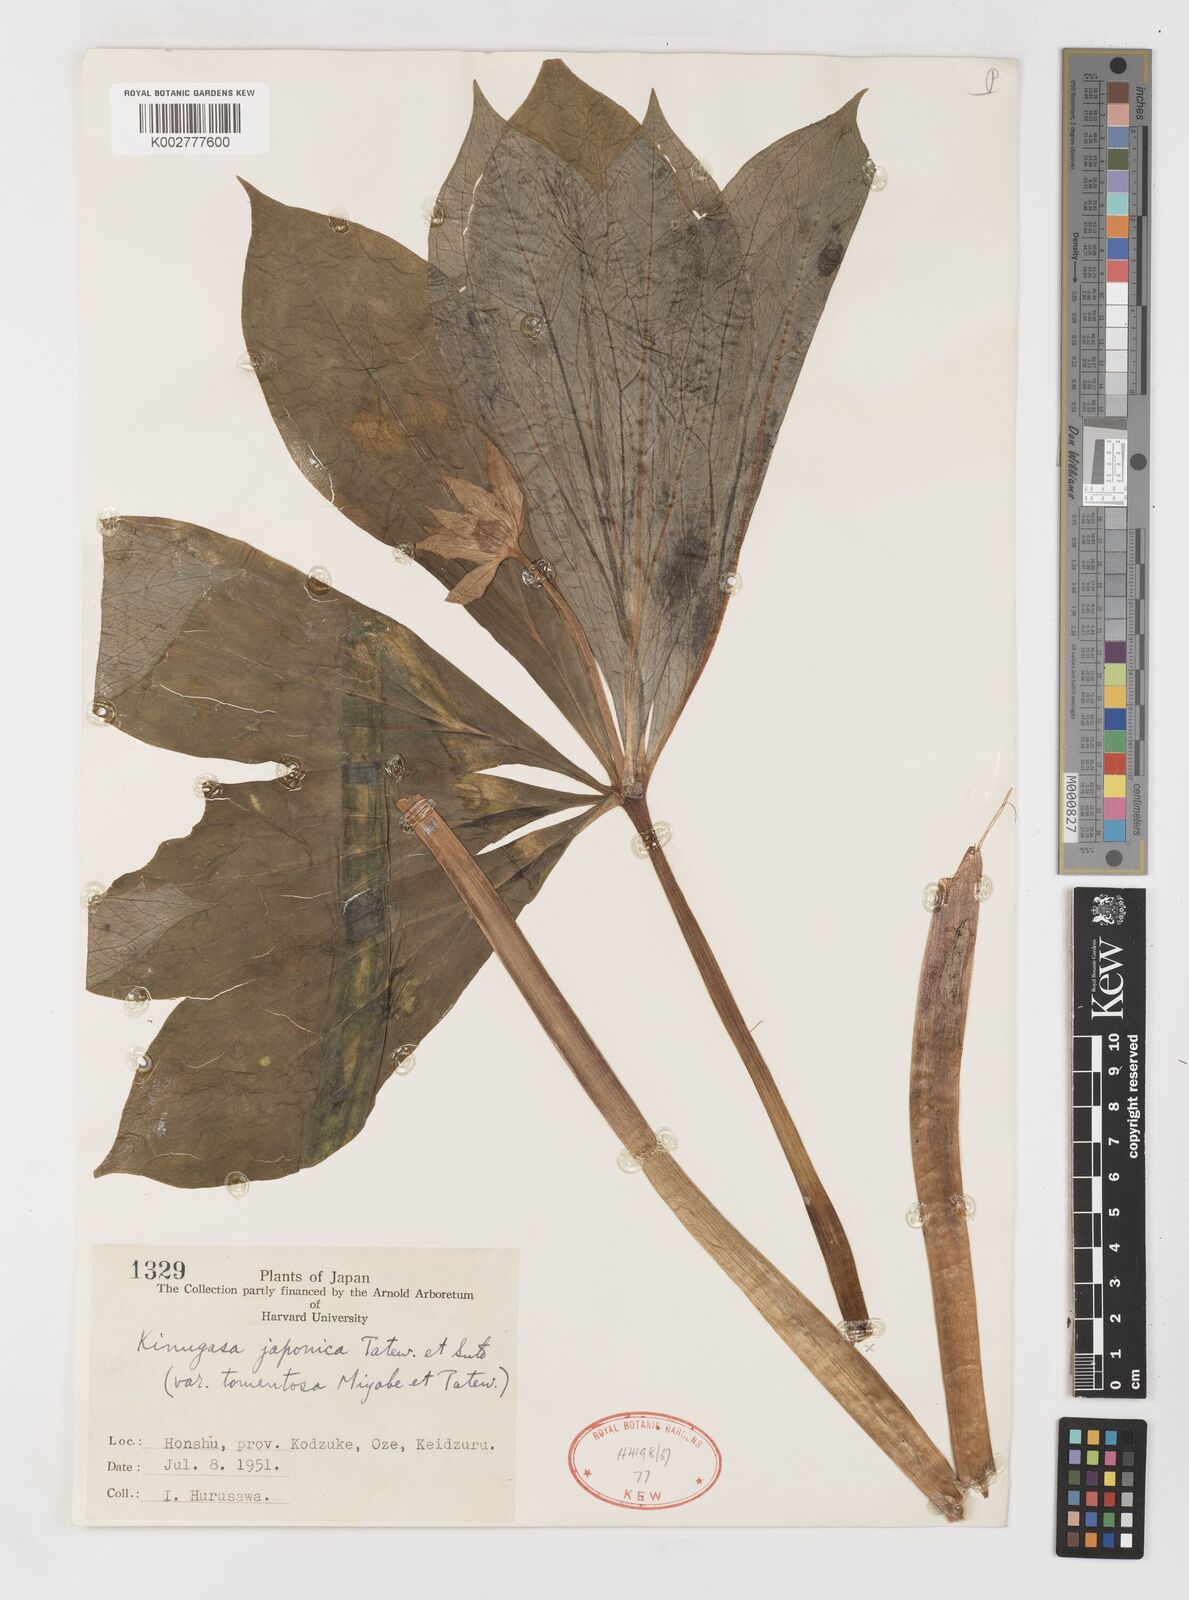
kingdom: Plantae
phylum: Tracheophyta
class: Liliopsida
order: Liliales
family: Melanthiaceae
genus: Paris
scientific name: Paris japonica
